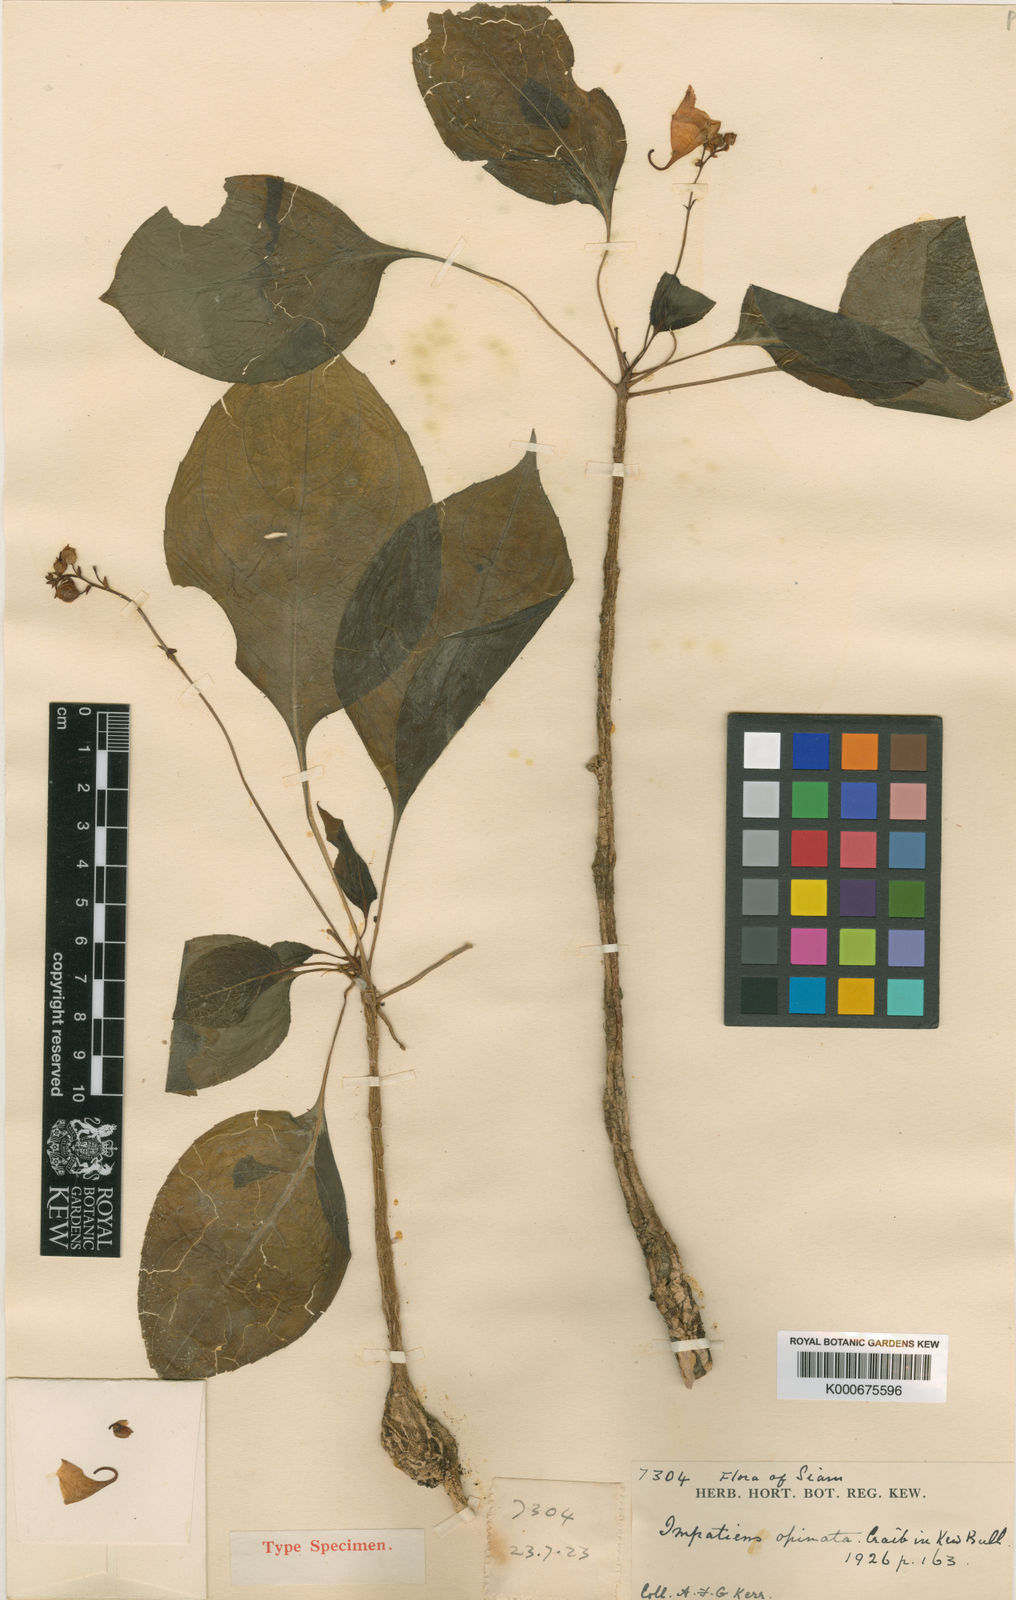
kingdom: Plantae
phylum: Tracheophyta
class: Magnoliopsida
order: Ericales
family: Balsaminaceae
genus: Impatiens
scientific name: Impatiens opinata
